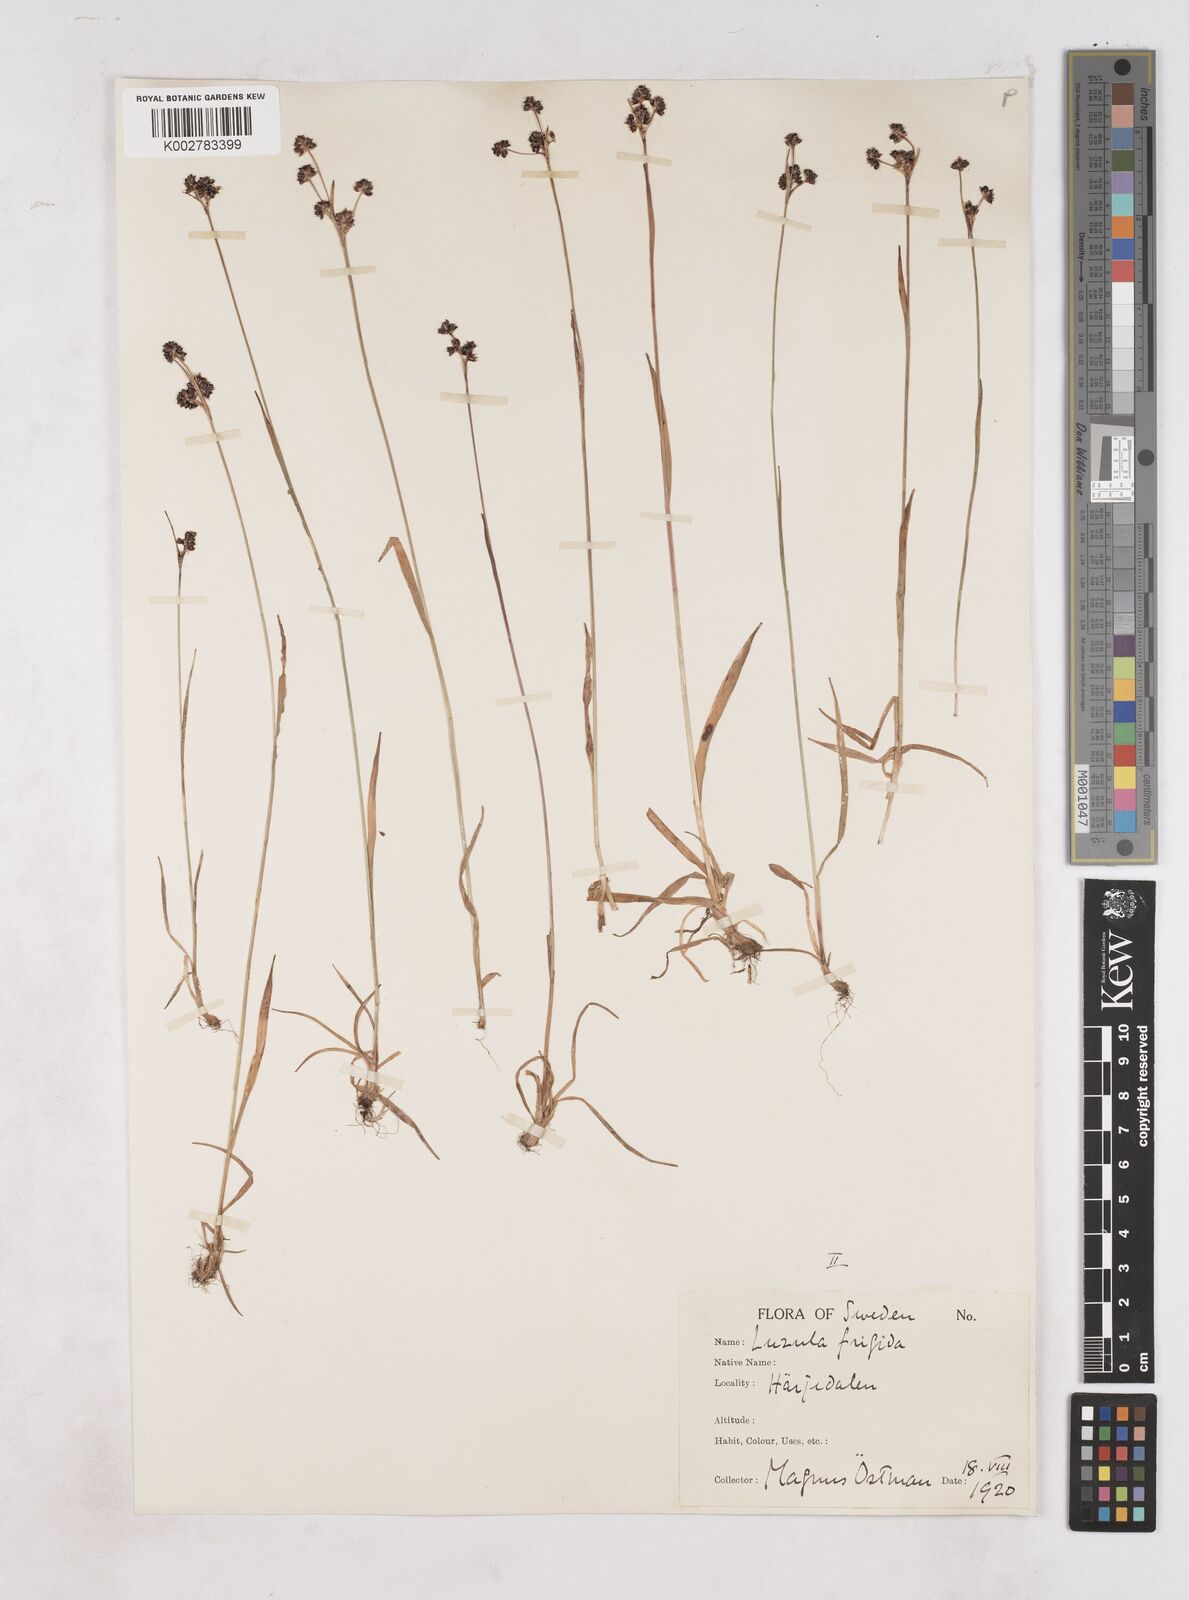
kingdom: Plantae
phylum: Tracheophyta
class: Liliopsida
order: Poales
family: Juncaceae
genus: Luzula
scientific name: Luzula multiflora
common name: Heath wood-rush
